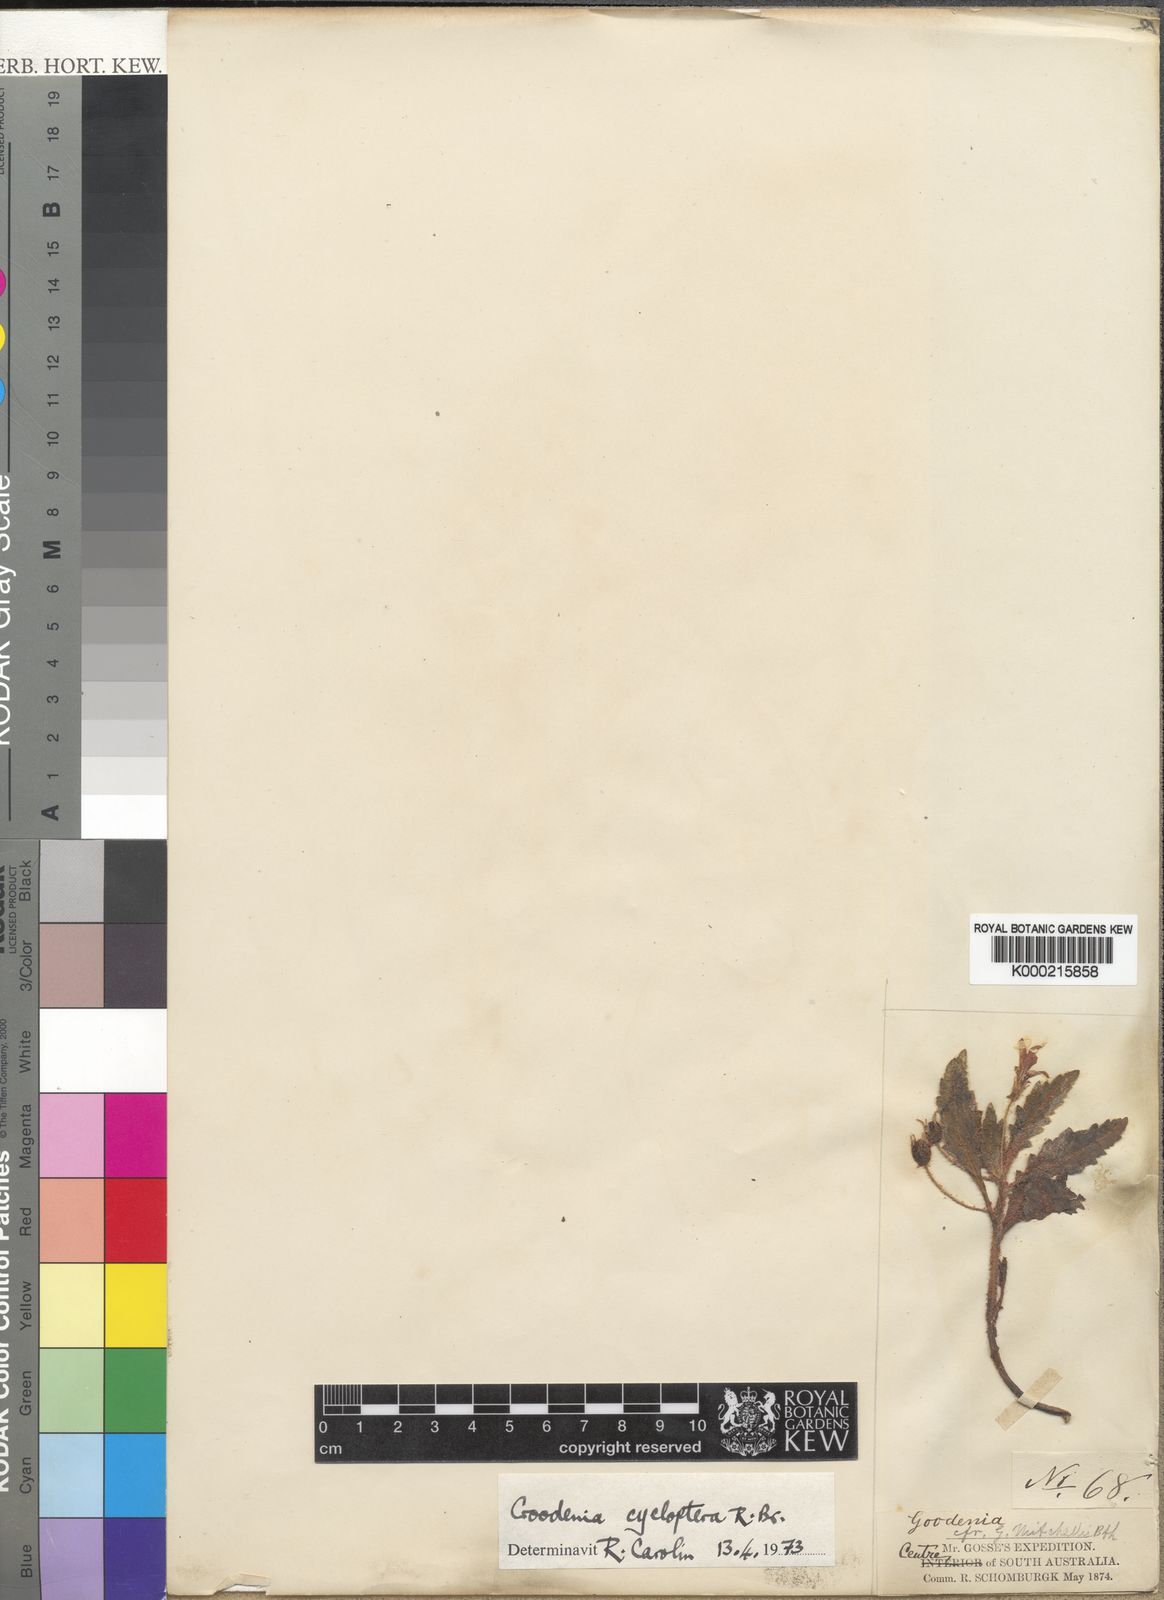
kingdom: Plantae
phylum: Tracheophyta
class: Magnoliopsida
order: Asterales
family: Goodeniaceae
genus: Goodenia
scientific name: Goodenia cycloptera
